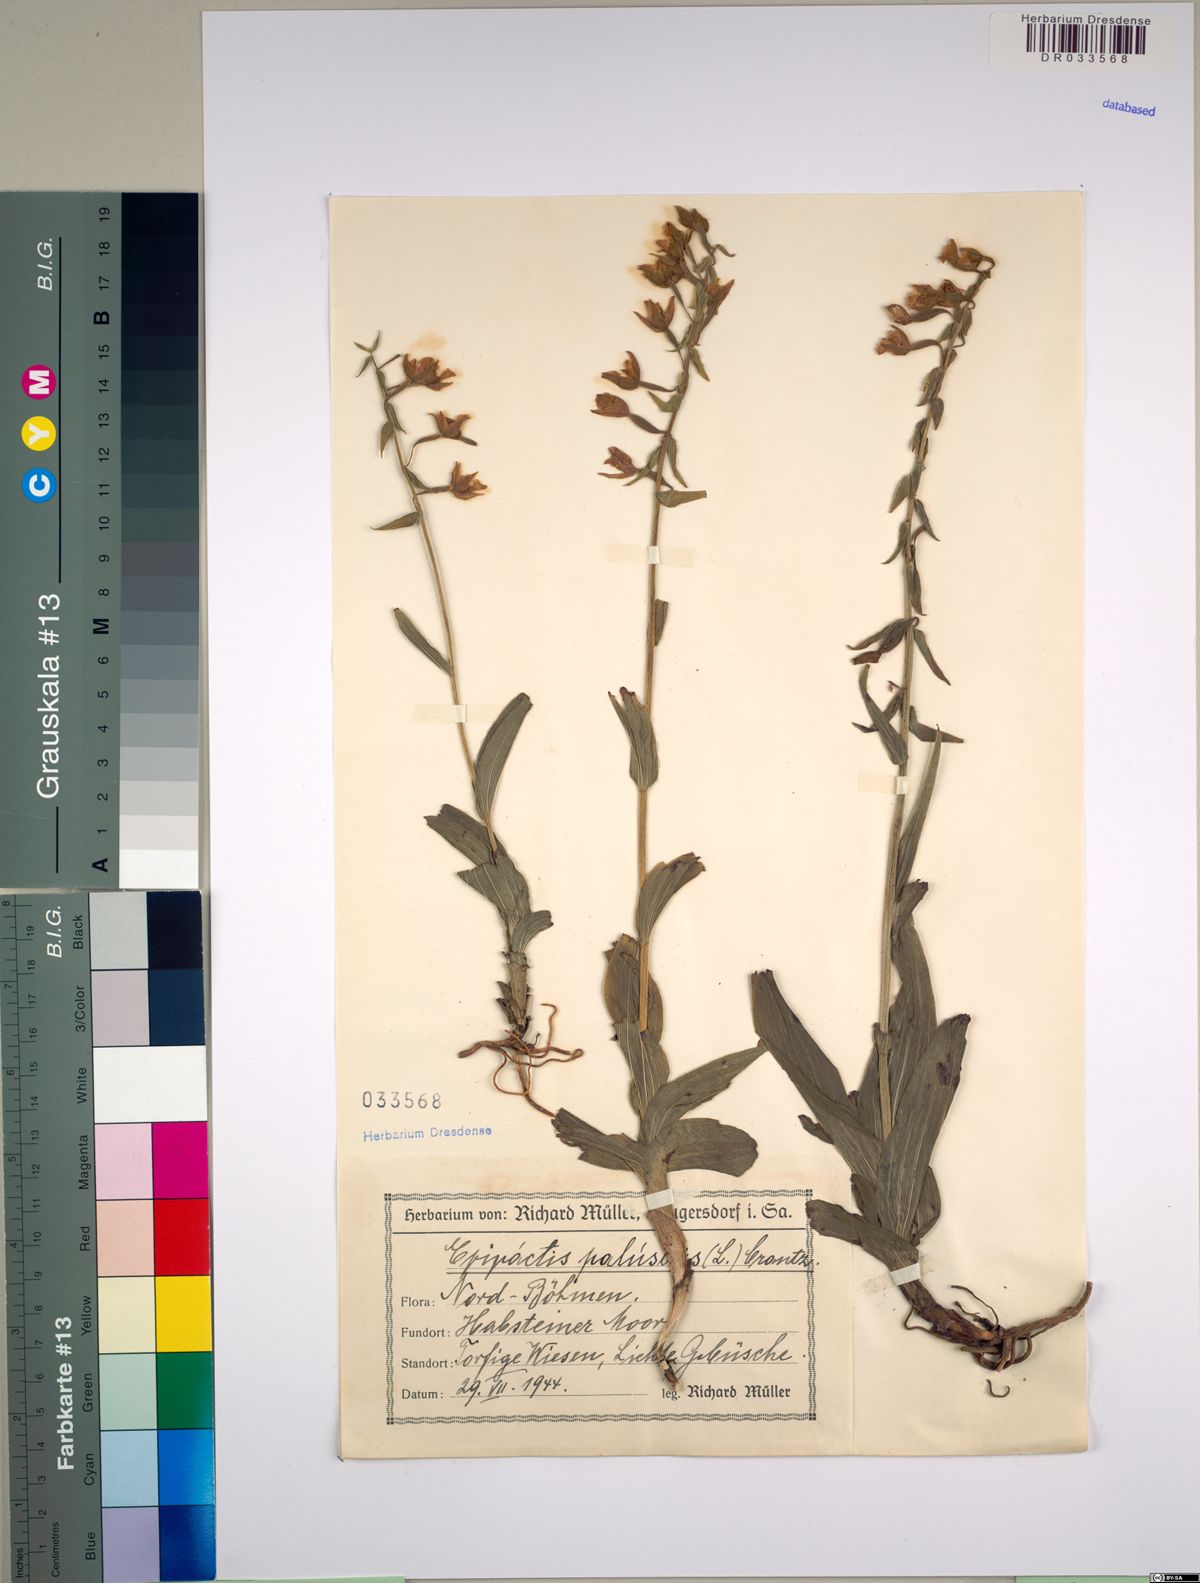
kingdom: Plantae
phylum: Tracheophyta
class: Liliopsida
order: Asparagales
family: Orchidaceae
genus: Epipactis
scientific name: Epipactis palustris
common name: Marsh helleborine
